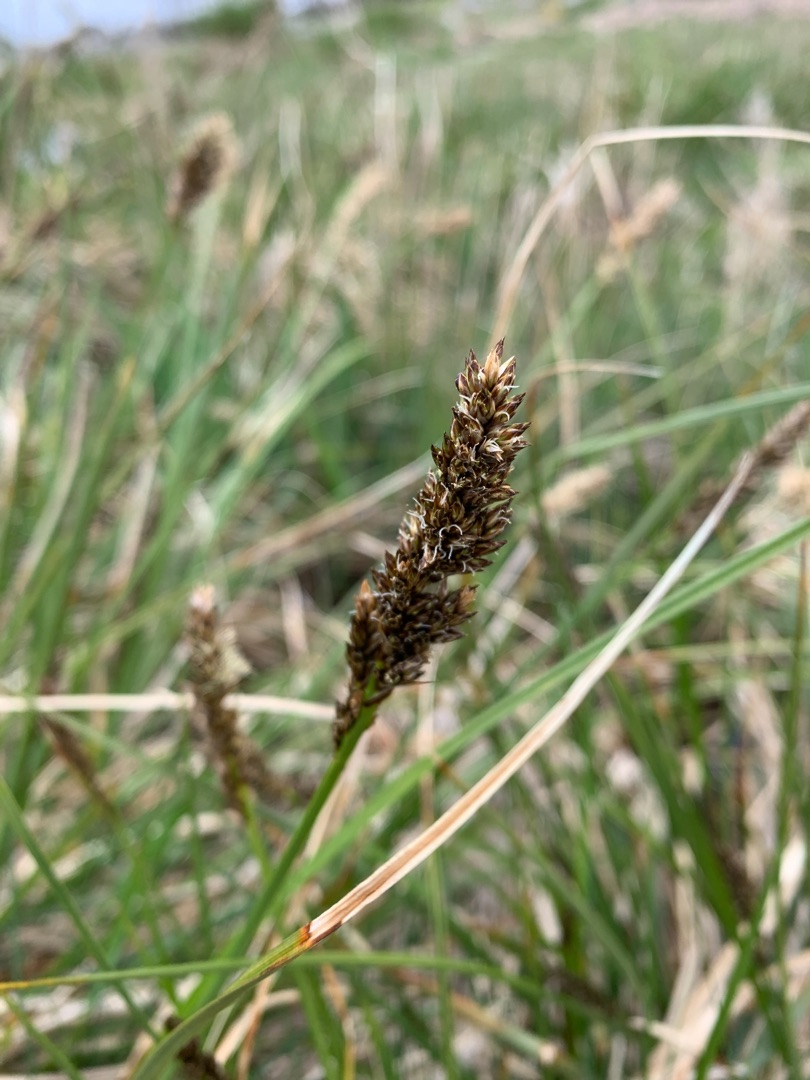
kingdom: Plantae
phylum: Tracheophyta
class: Liliopsida
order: Poales
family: Cyperaceae
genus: Carex
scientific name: Carex paniculata
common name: Top-star
